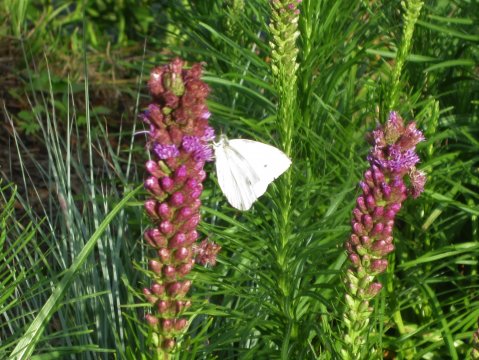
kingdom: Animalia
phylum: Arthropoda
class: Insecta
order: Lepidoptera
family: Pieridae
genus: Pieris
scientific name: Pieris rapae
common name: Cabbage White
